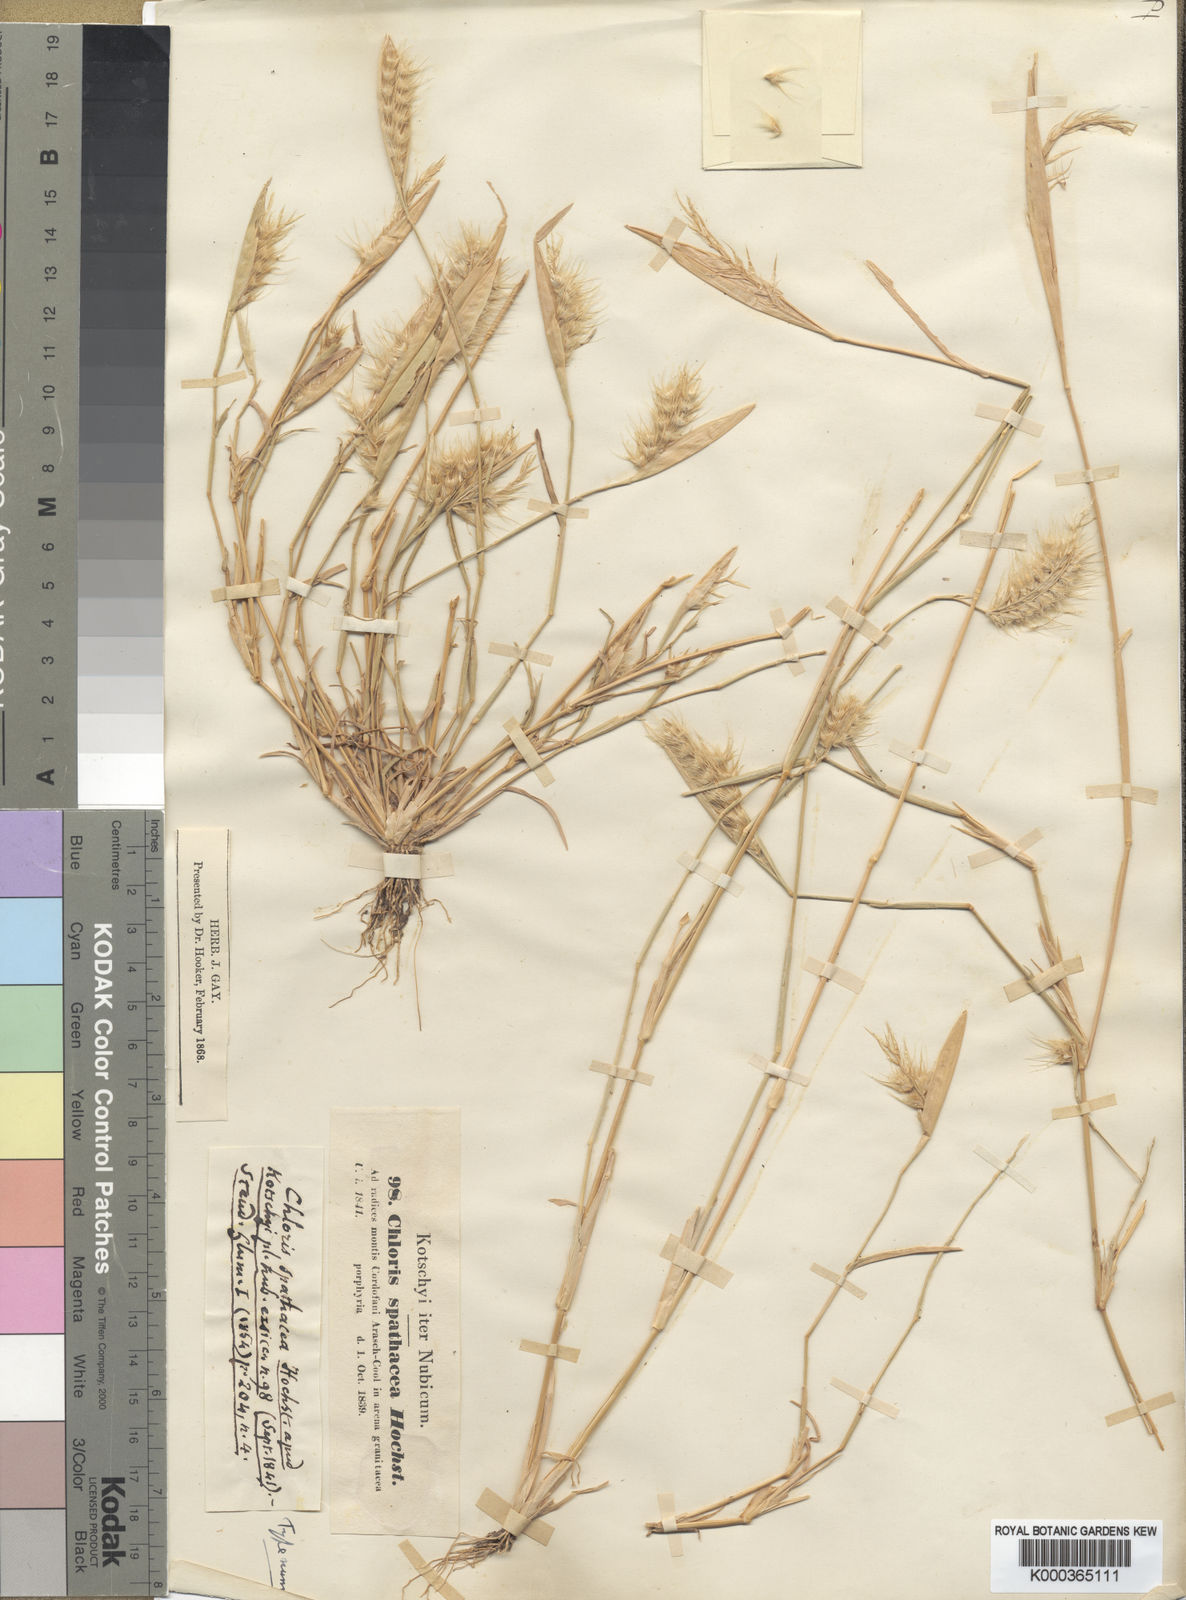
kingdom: Plantae
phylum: Tracheophyta
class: Liliopsida
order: Poales
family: Poaceae
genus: Tetrapogon
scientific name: Tetrapogon cenchriformis
